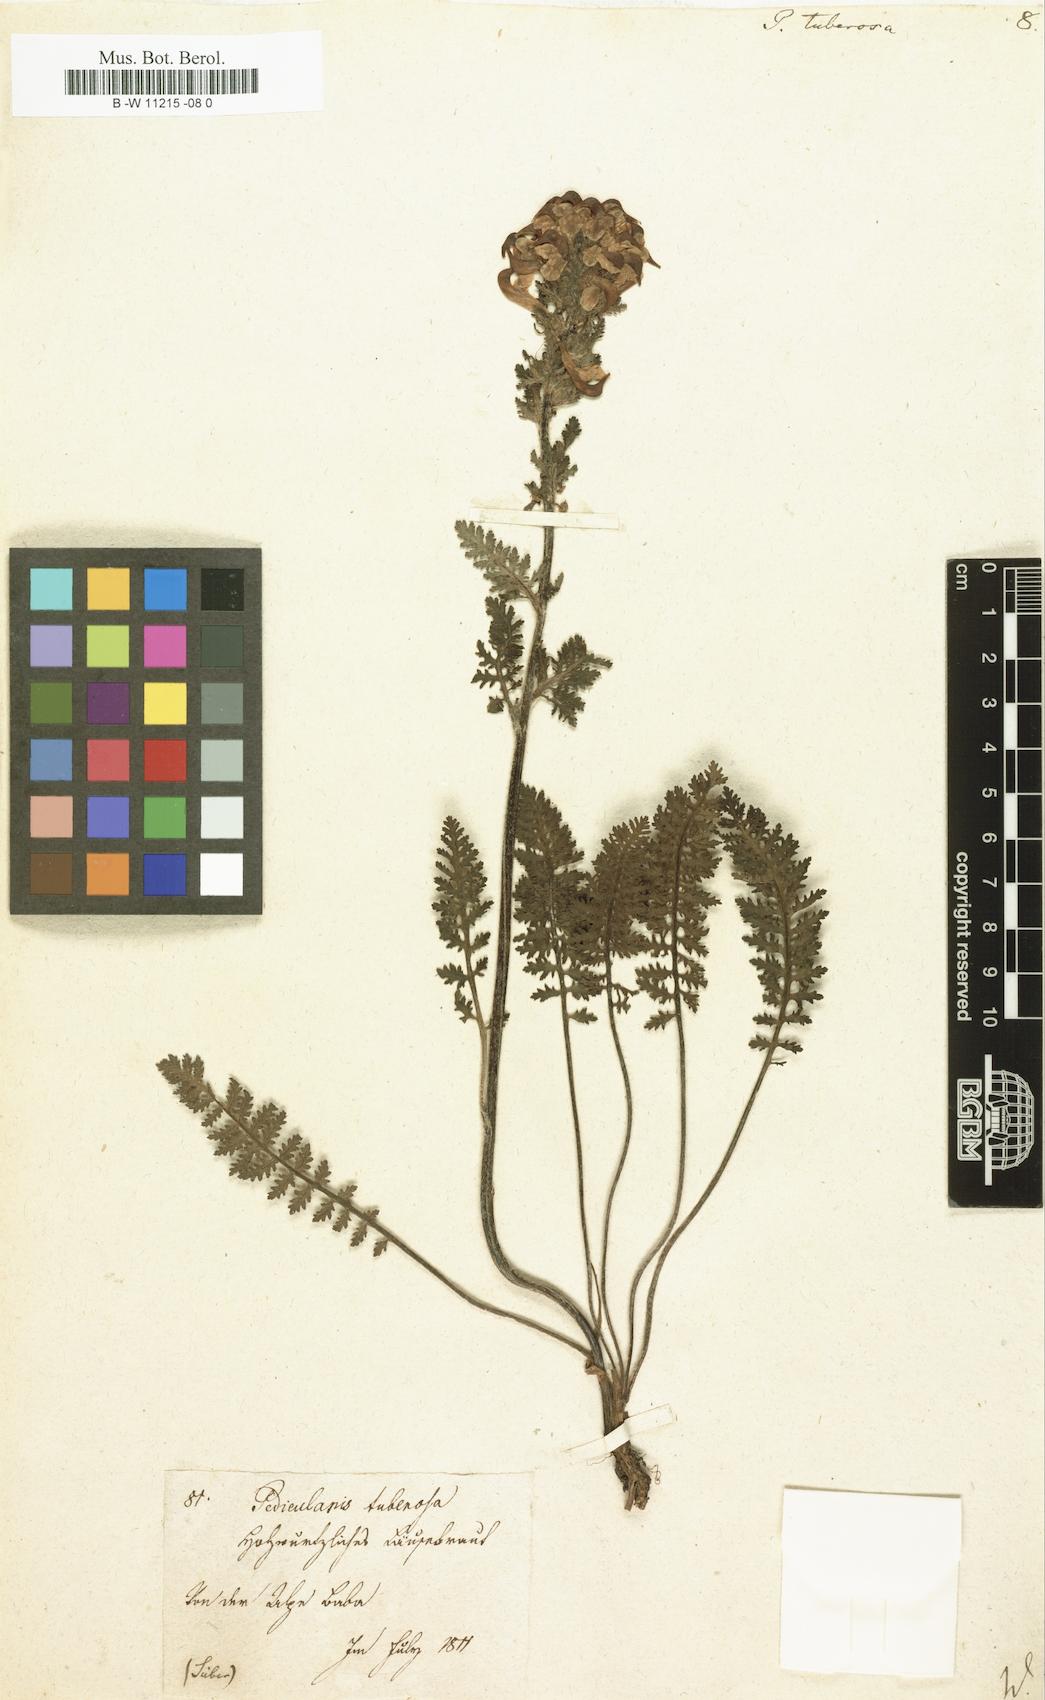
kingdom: Plantae
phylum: Tracheophyta
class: Magnoliopsida
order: Lamiales
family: Orobanchaceae
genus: Pedicularis
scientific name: Pedicularis tuberosa
